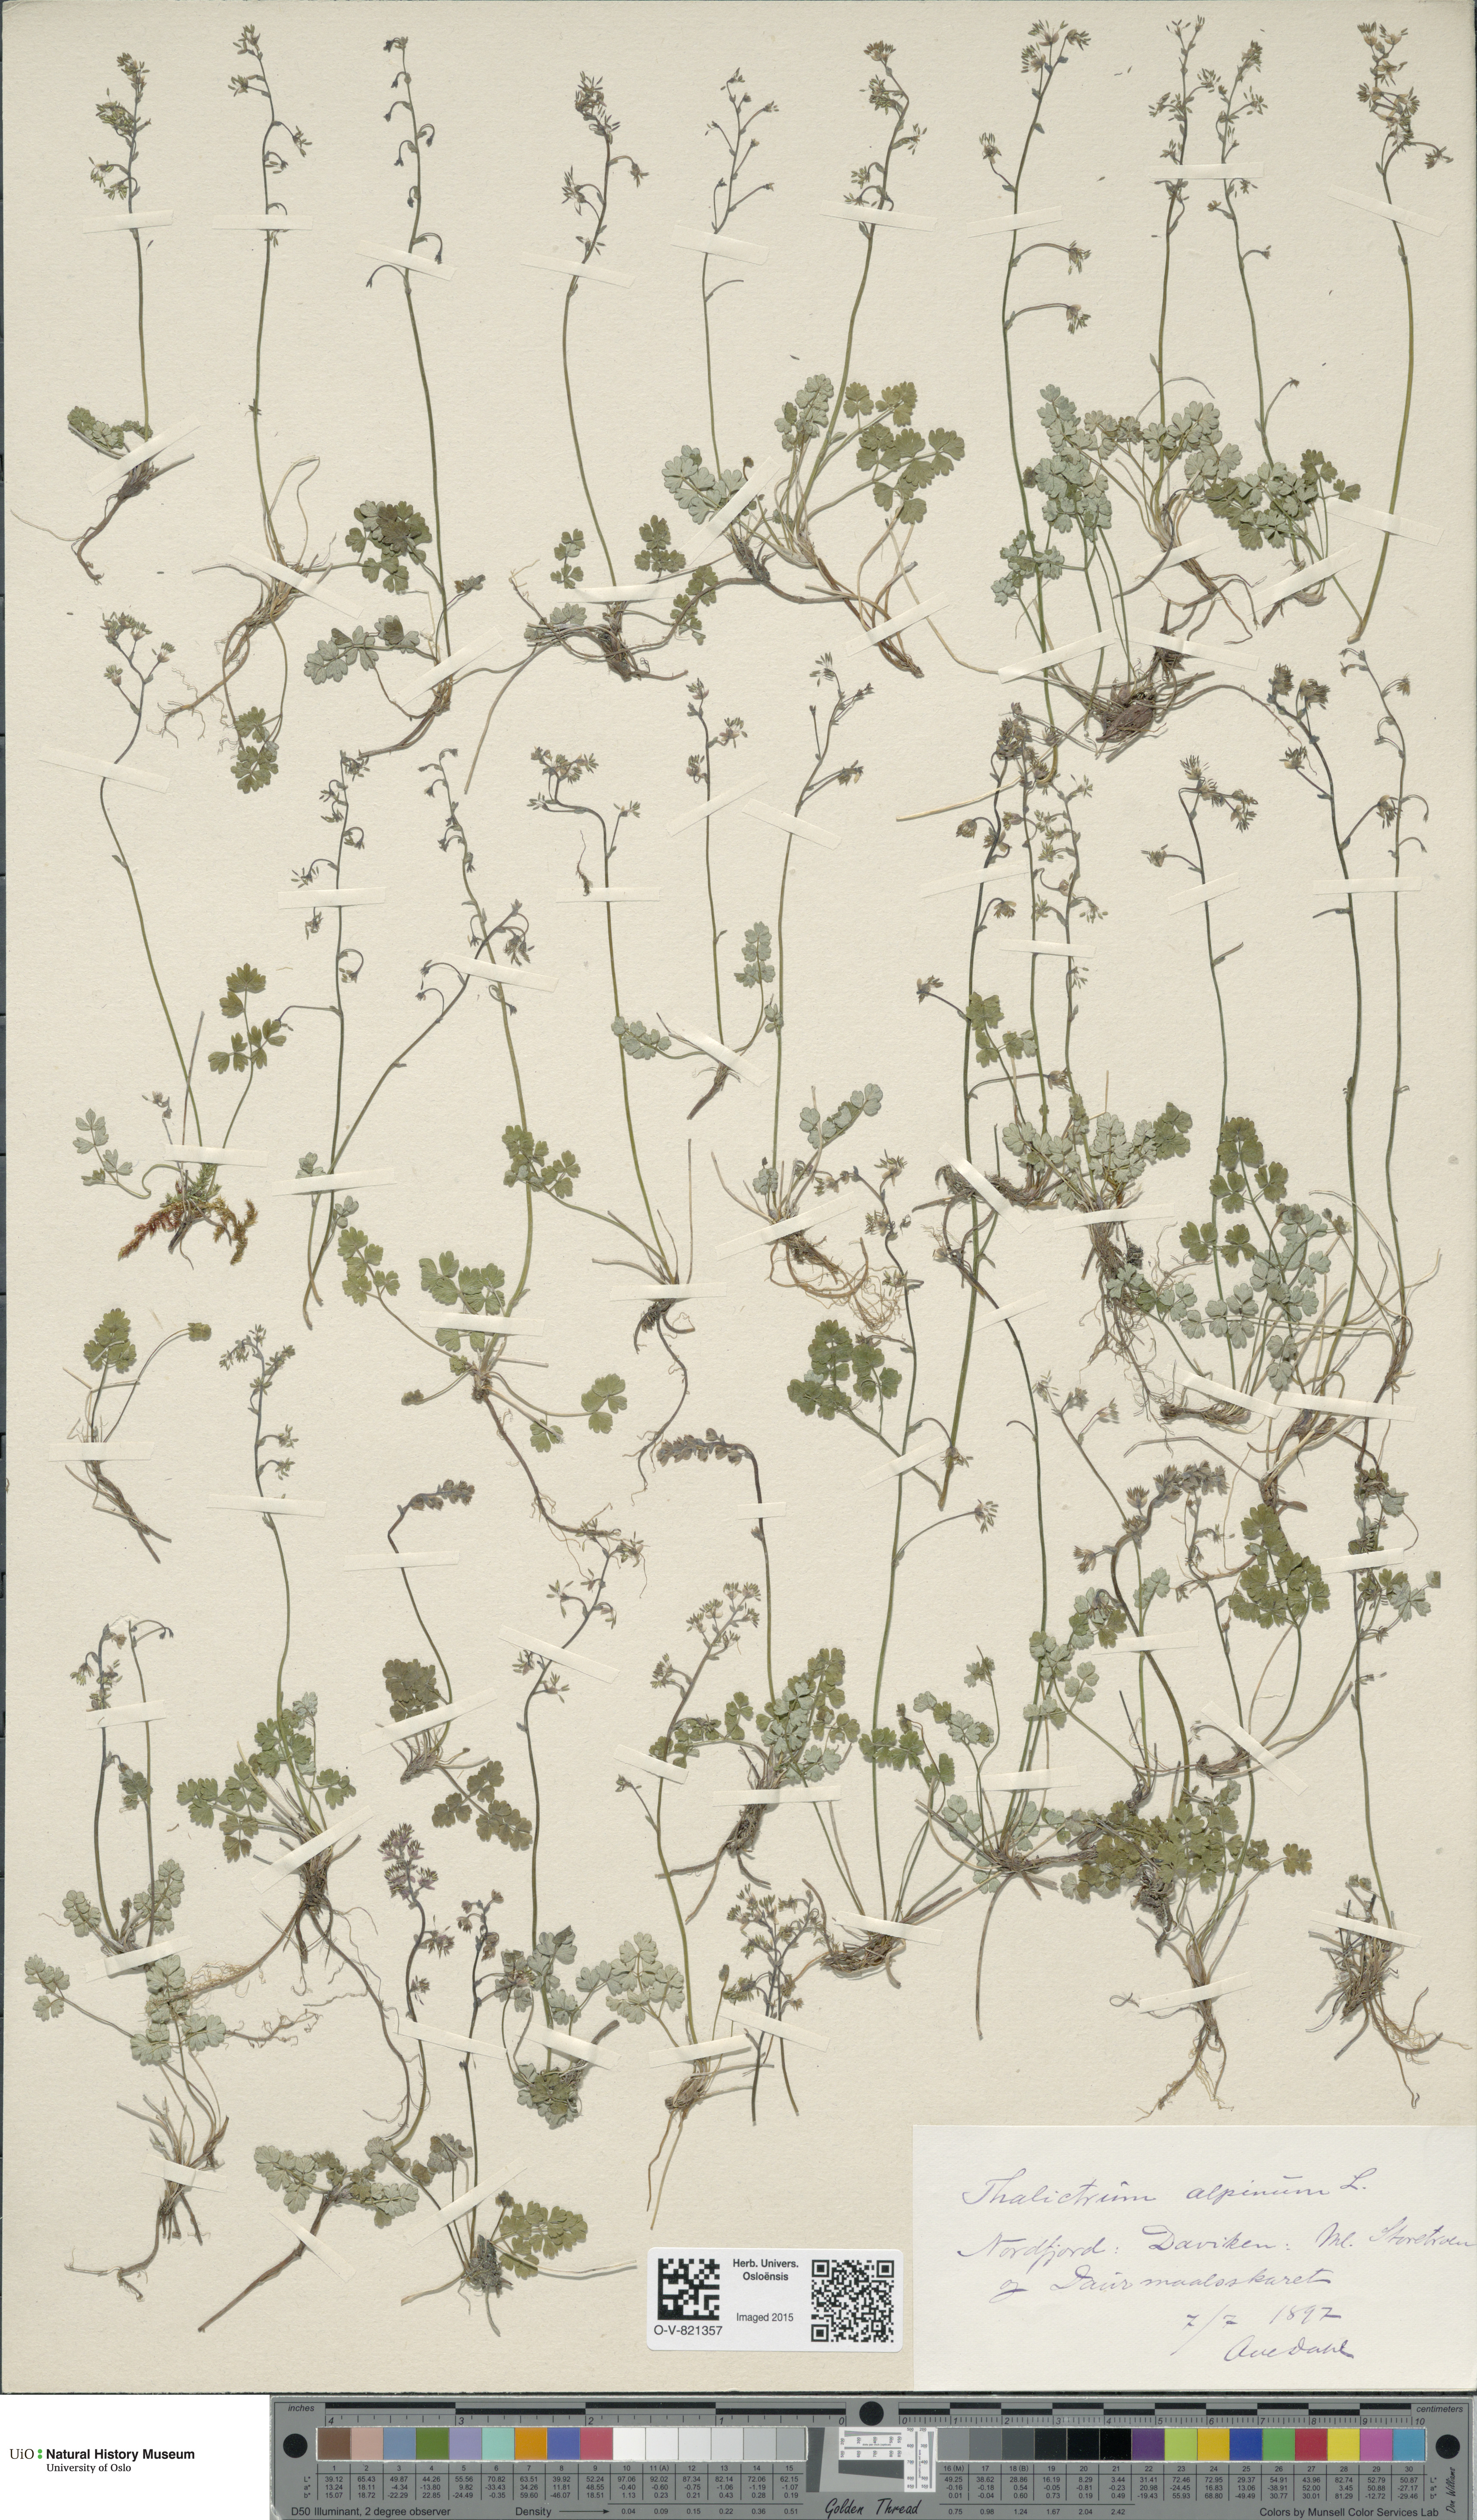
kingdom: Plantae
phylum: Tracheophyta
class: Magnoliopsida
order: Ranunculales
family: Ranunculaceae
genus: Thalictrum
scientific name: Thalictrum alpinum
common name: Alpine meadow-rue
